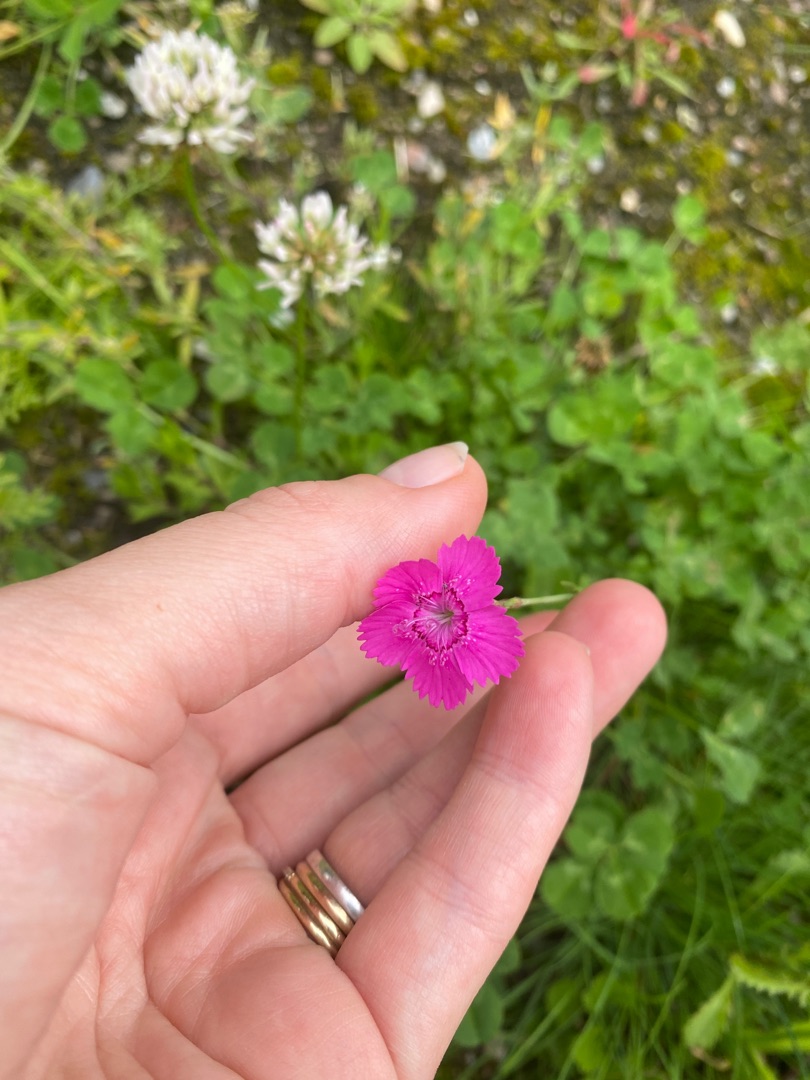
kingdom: Plantae
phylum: Tracheophyta
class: Magnoliopsida
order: Caryophyllales
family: Caryophyllaceae
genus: Dianthus
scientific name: Dianthus deltoides
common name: Bakke-nellike
